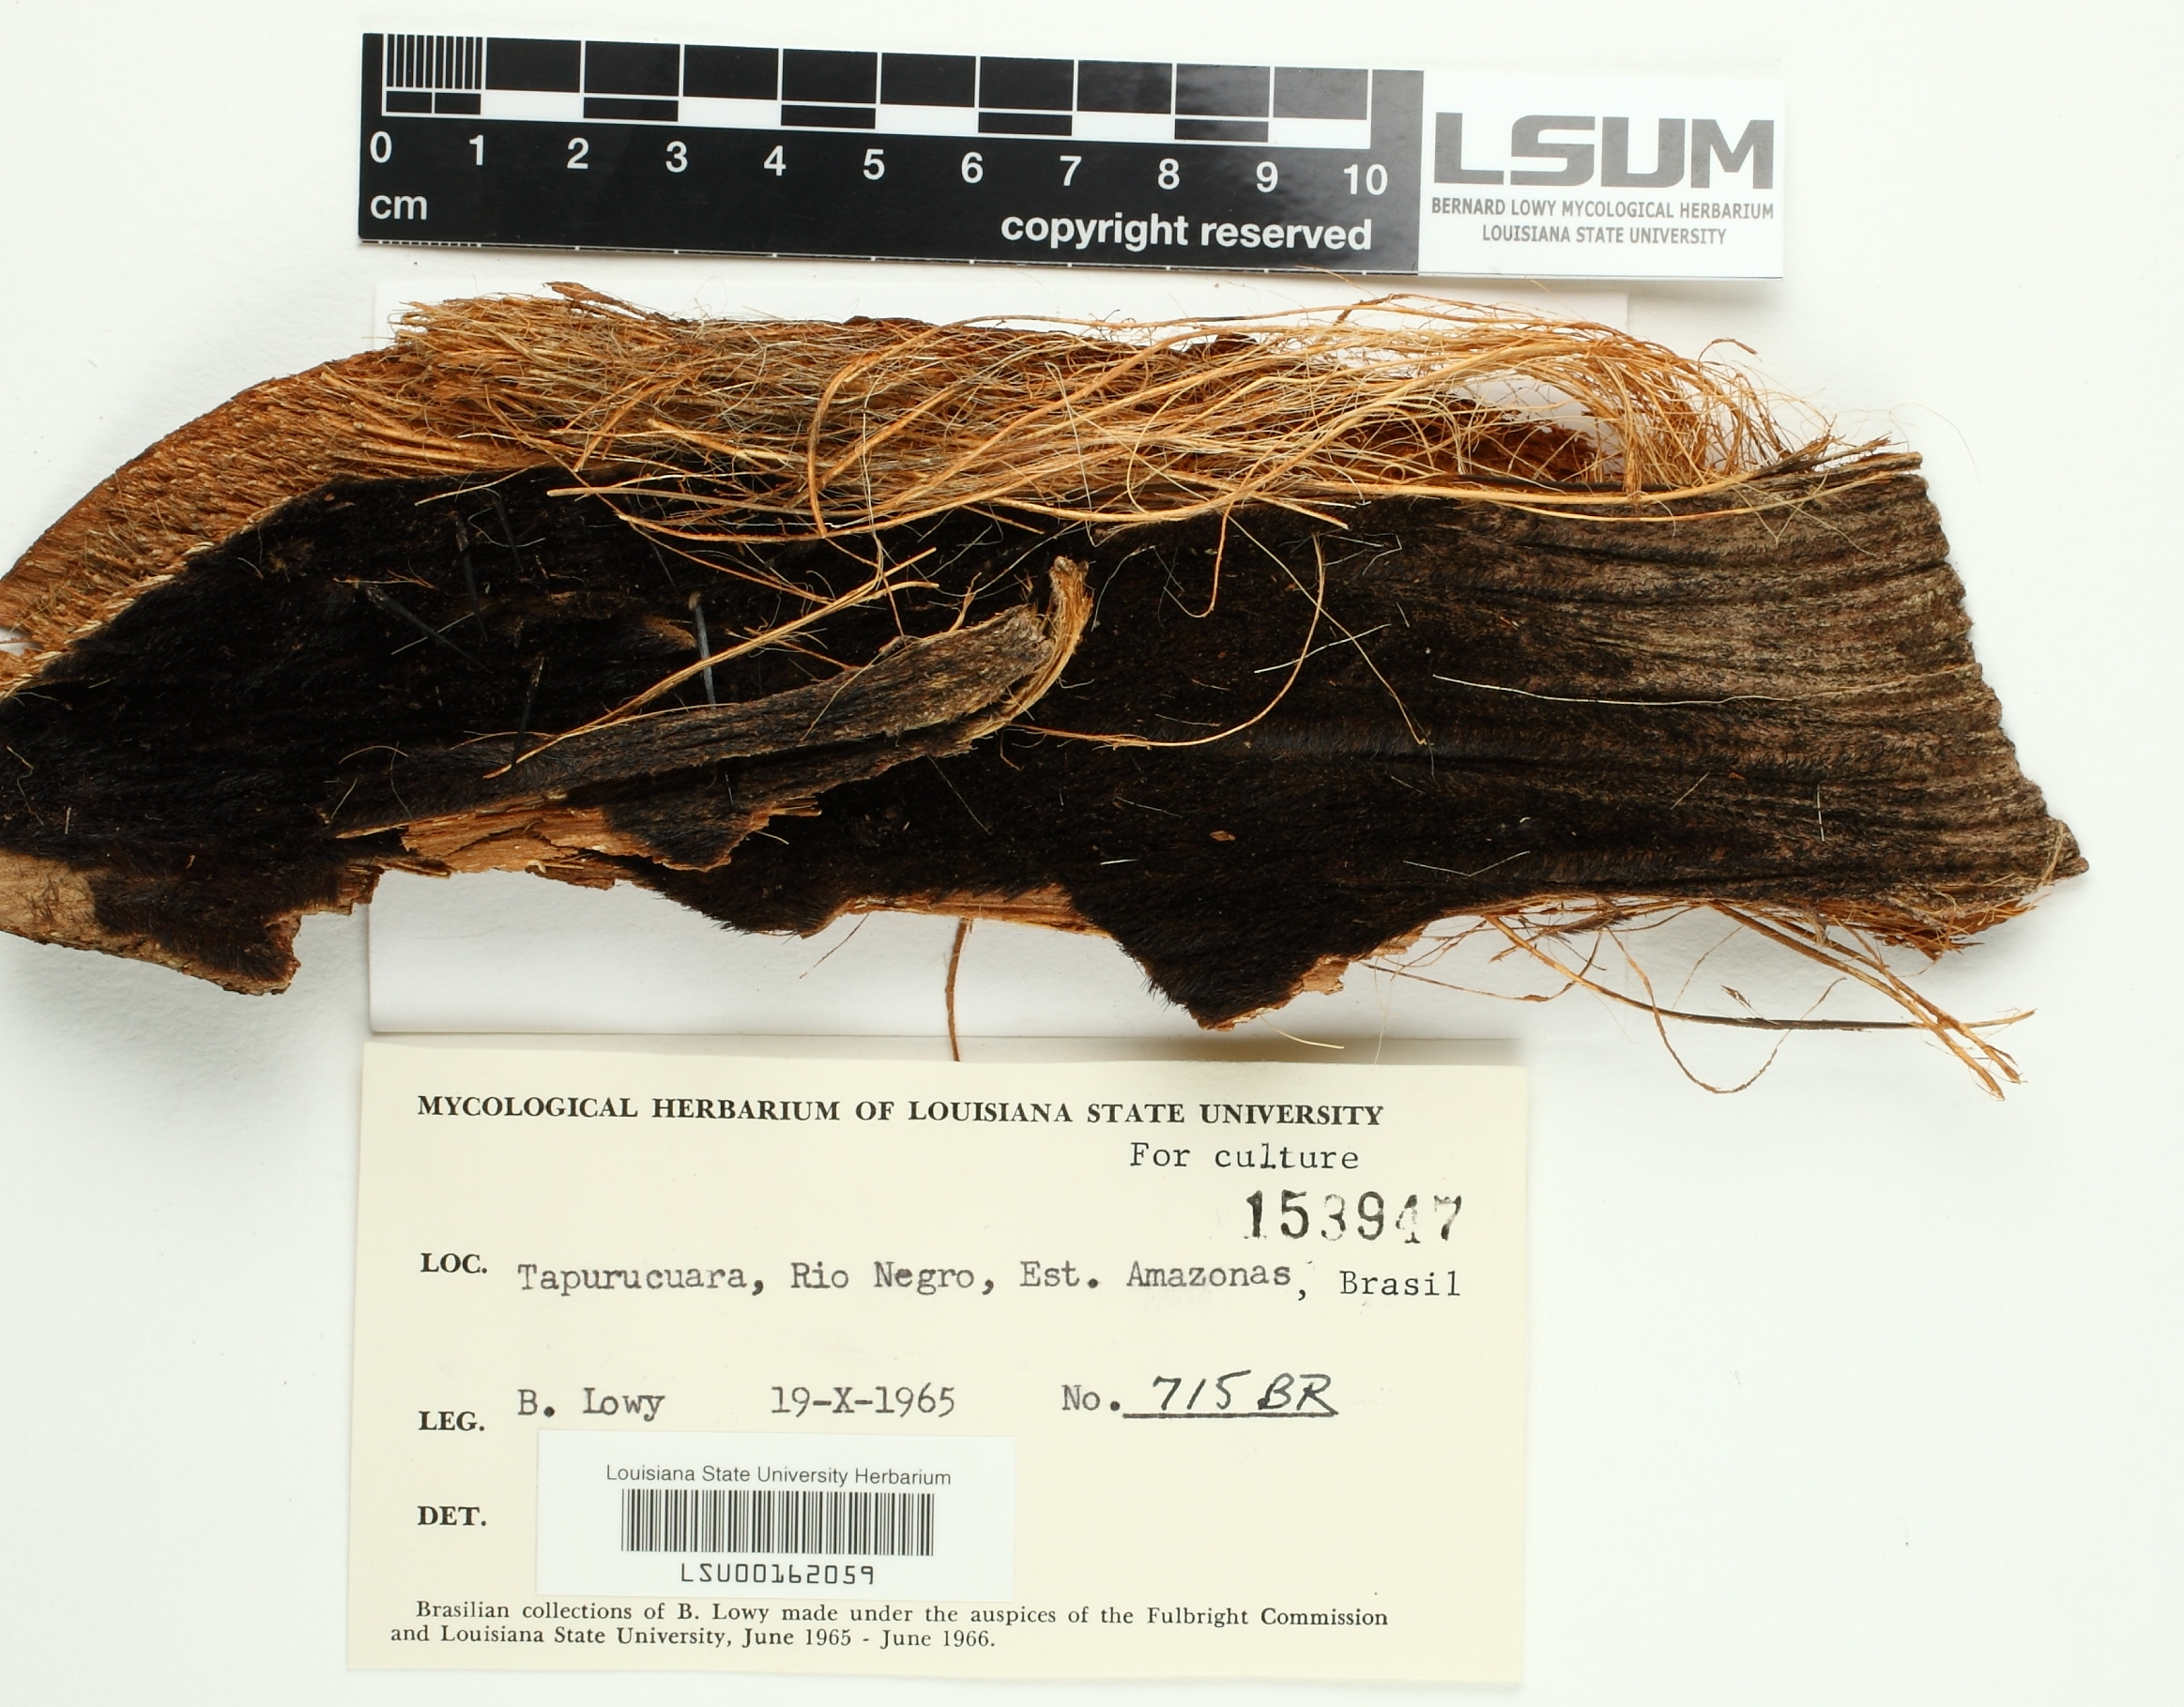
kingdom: Fungi
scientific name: Fungi
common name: Fungi
